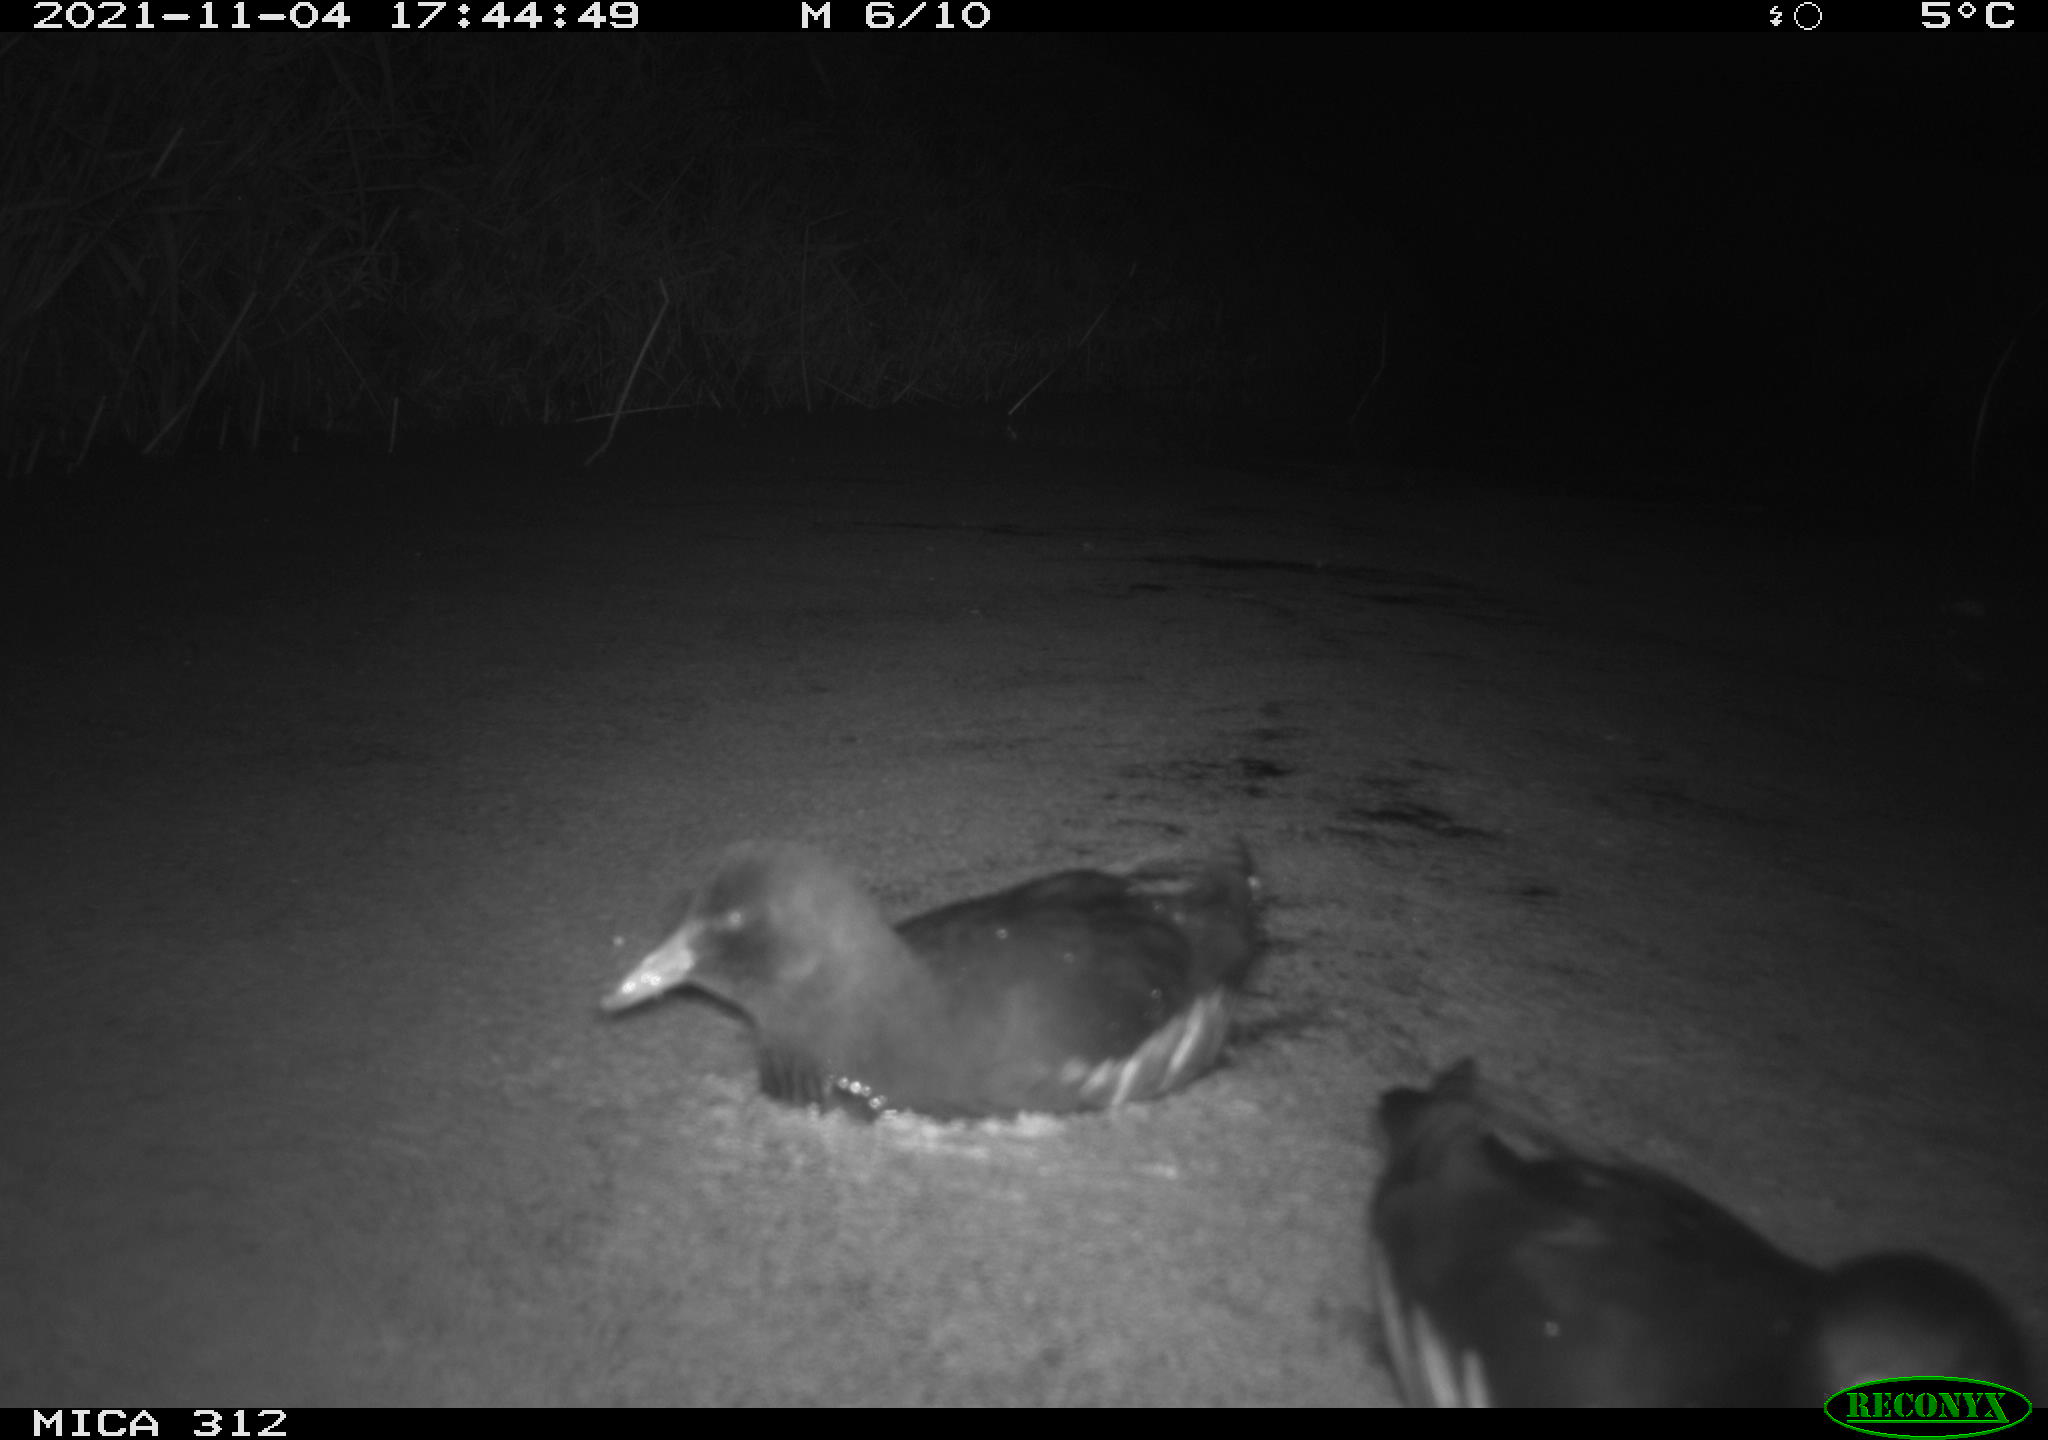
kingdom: Animalia
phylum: Chordata
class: Aves
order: Gruiformes
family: Rallidae
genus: Fulica
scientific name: Fulica atra
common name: Eurasian coot
